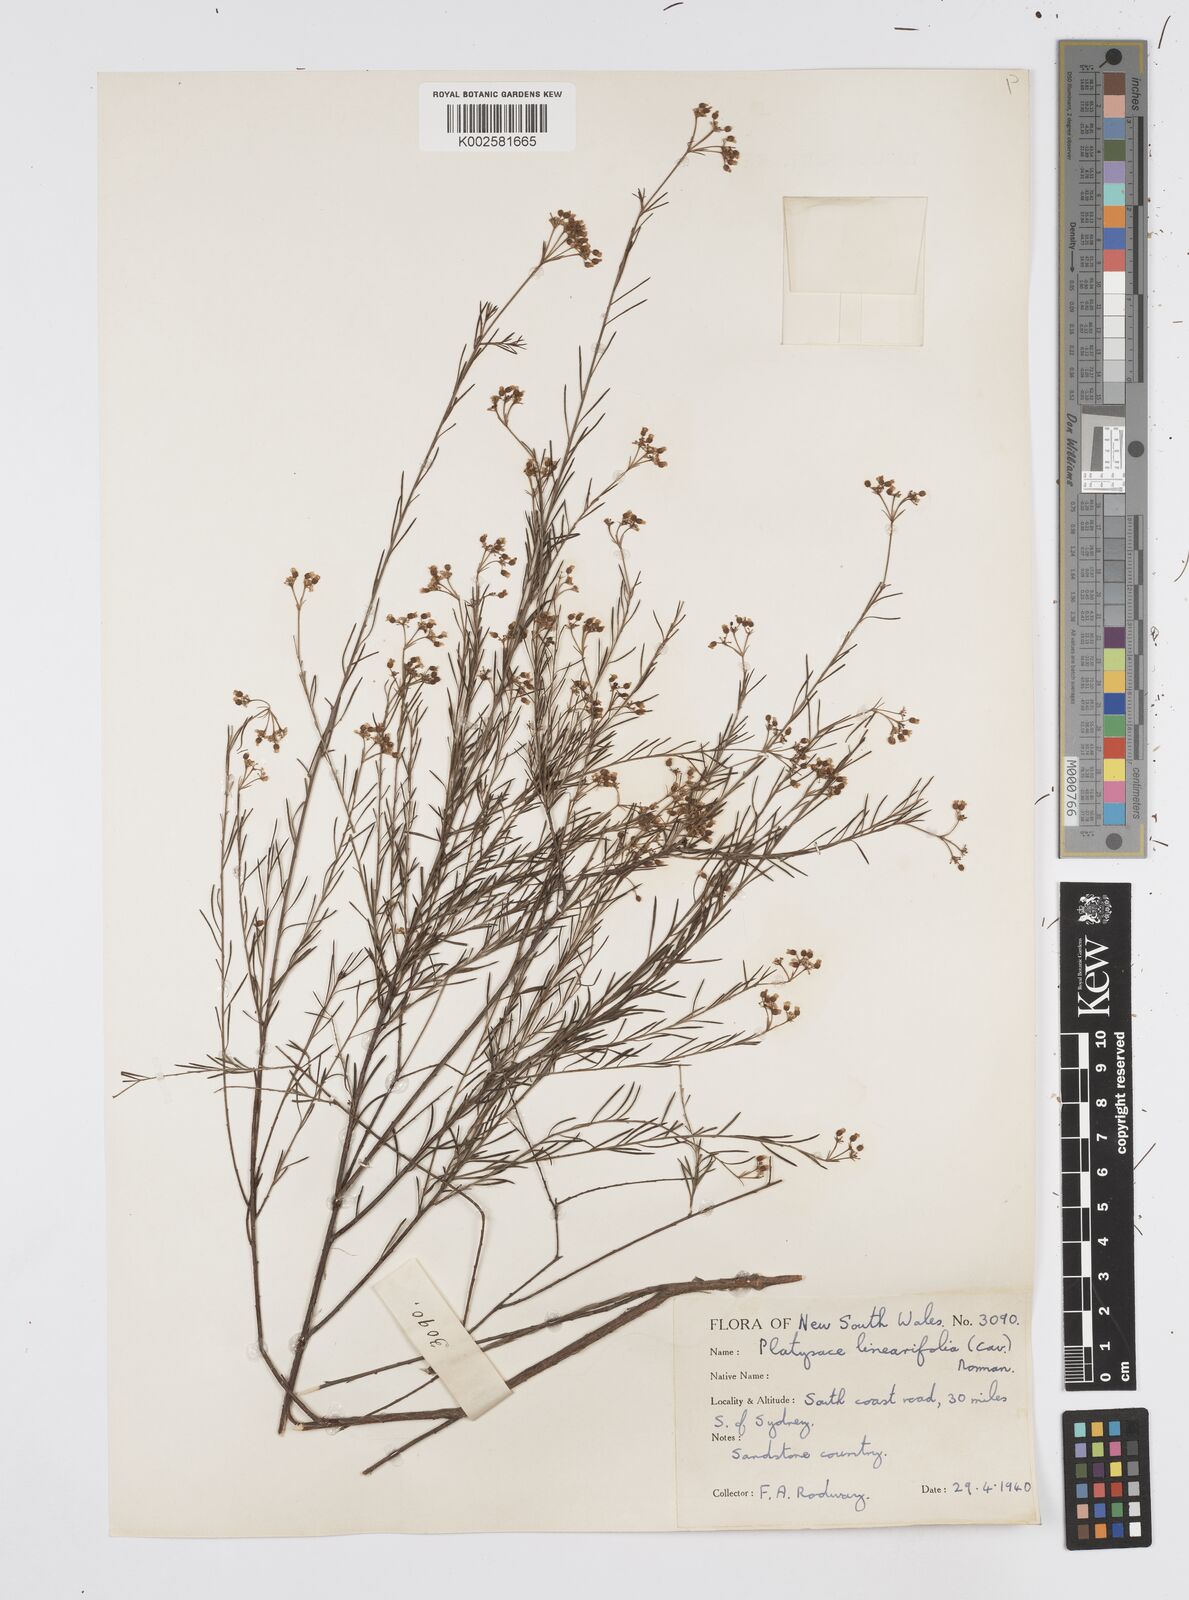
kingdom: Plantae
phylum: Tracheophyta
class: Magnoliopsida
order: Apiales
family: Apiaceae
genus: Platysace
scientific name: Platysace linearifolia
